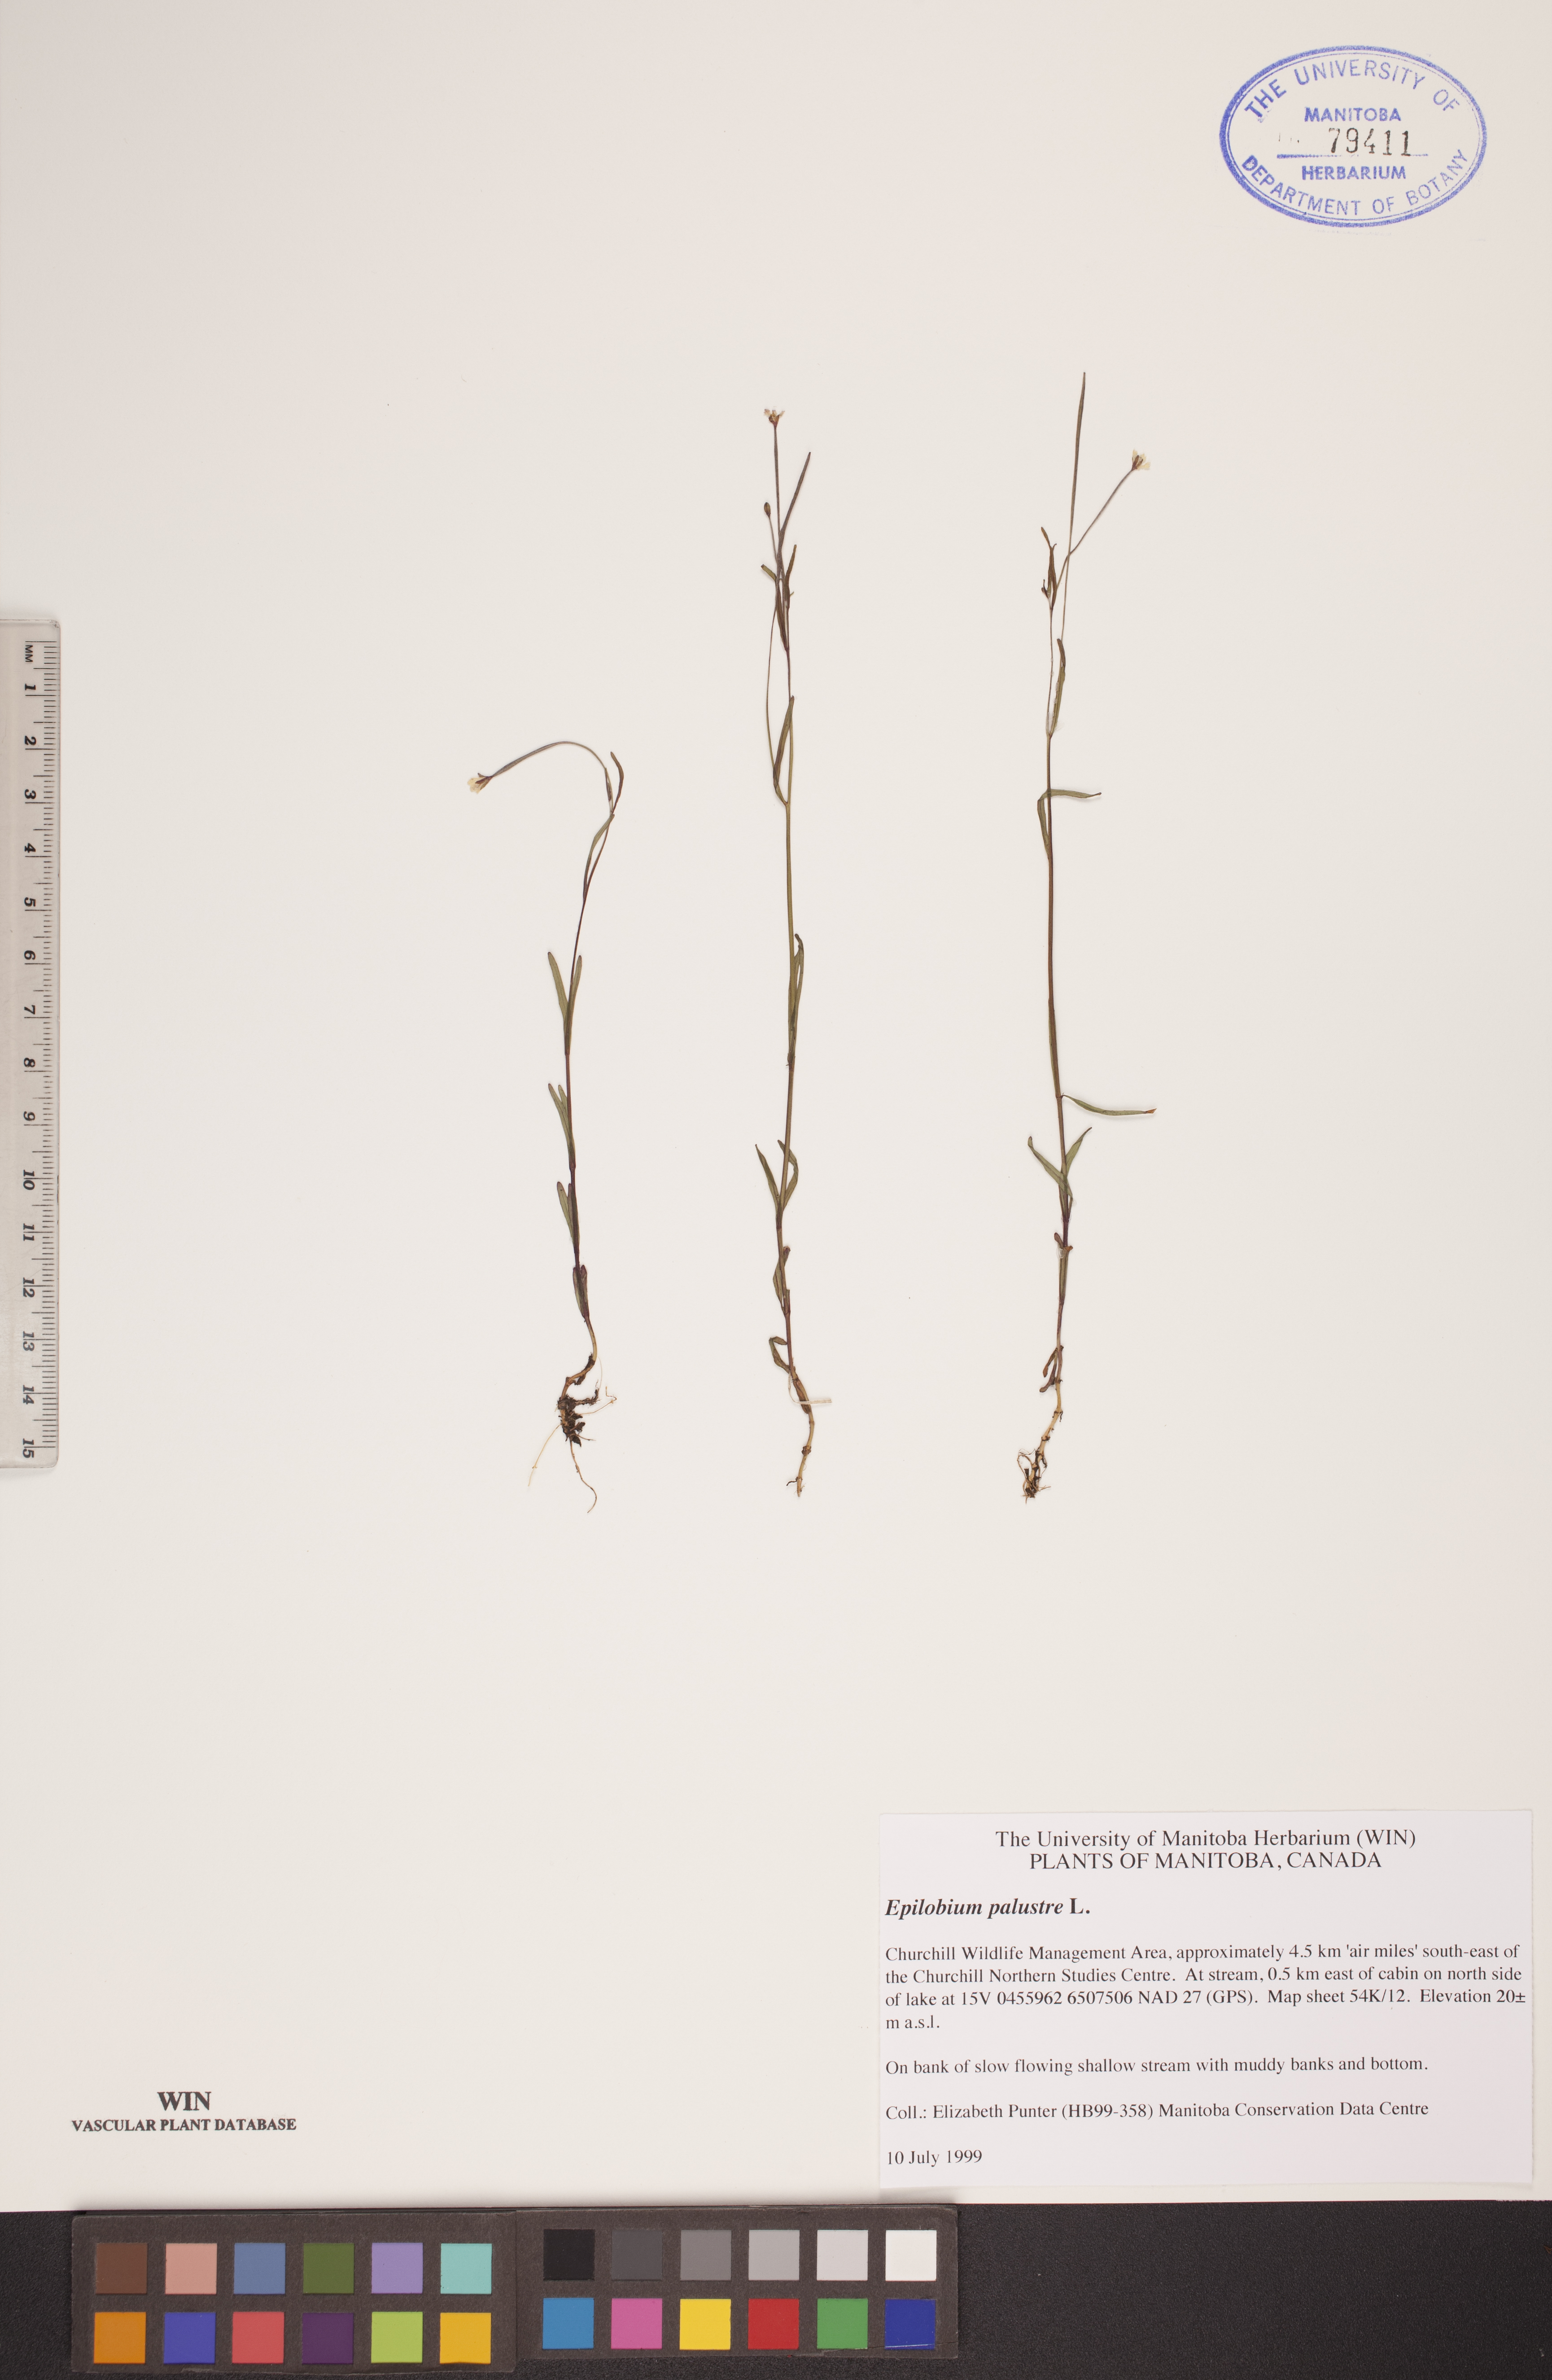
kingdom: Plantae
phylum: Tracheophyta
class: Magnoliopsida
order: Myrtales
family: Onagraceae
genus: Epilobium
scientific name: Epilobium palustre
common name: Marsh willowherb
